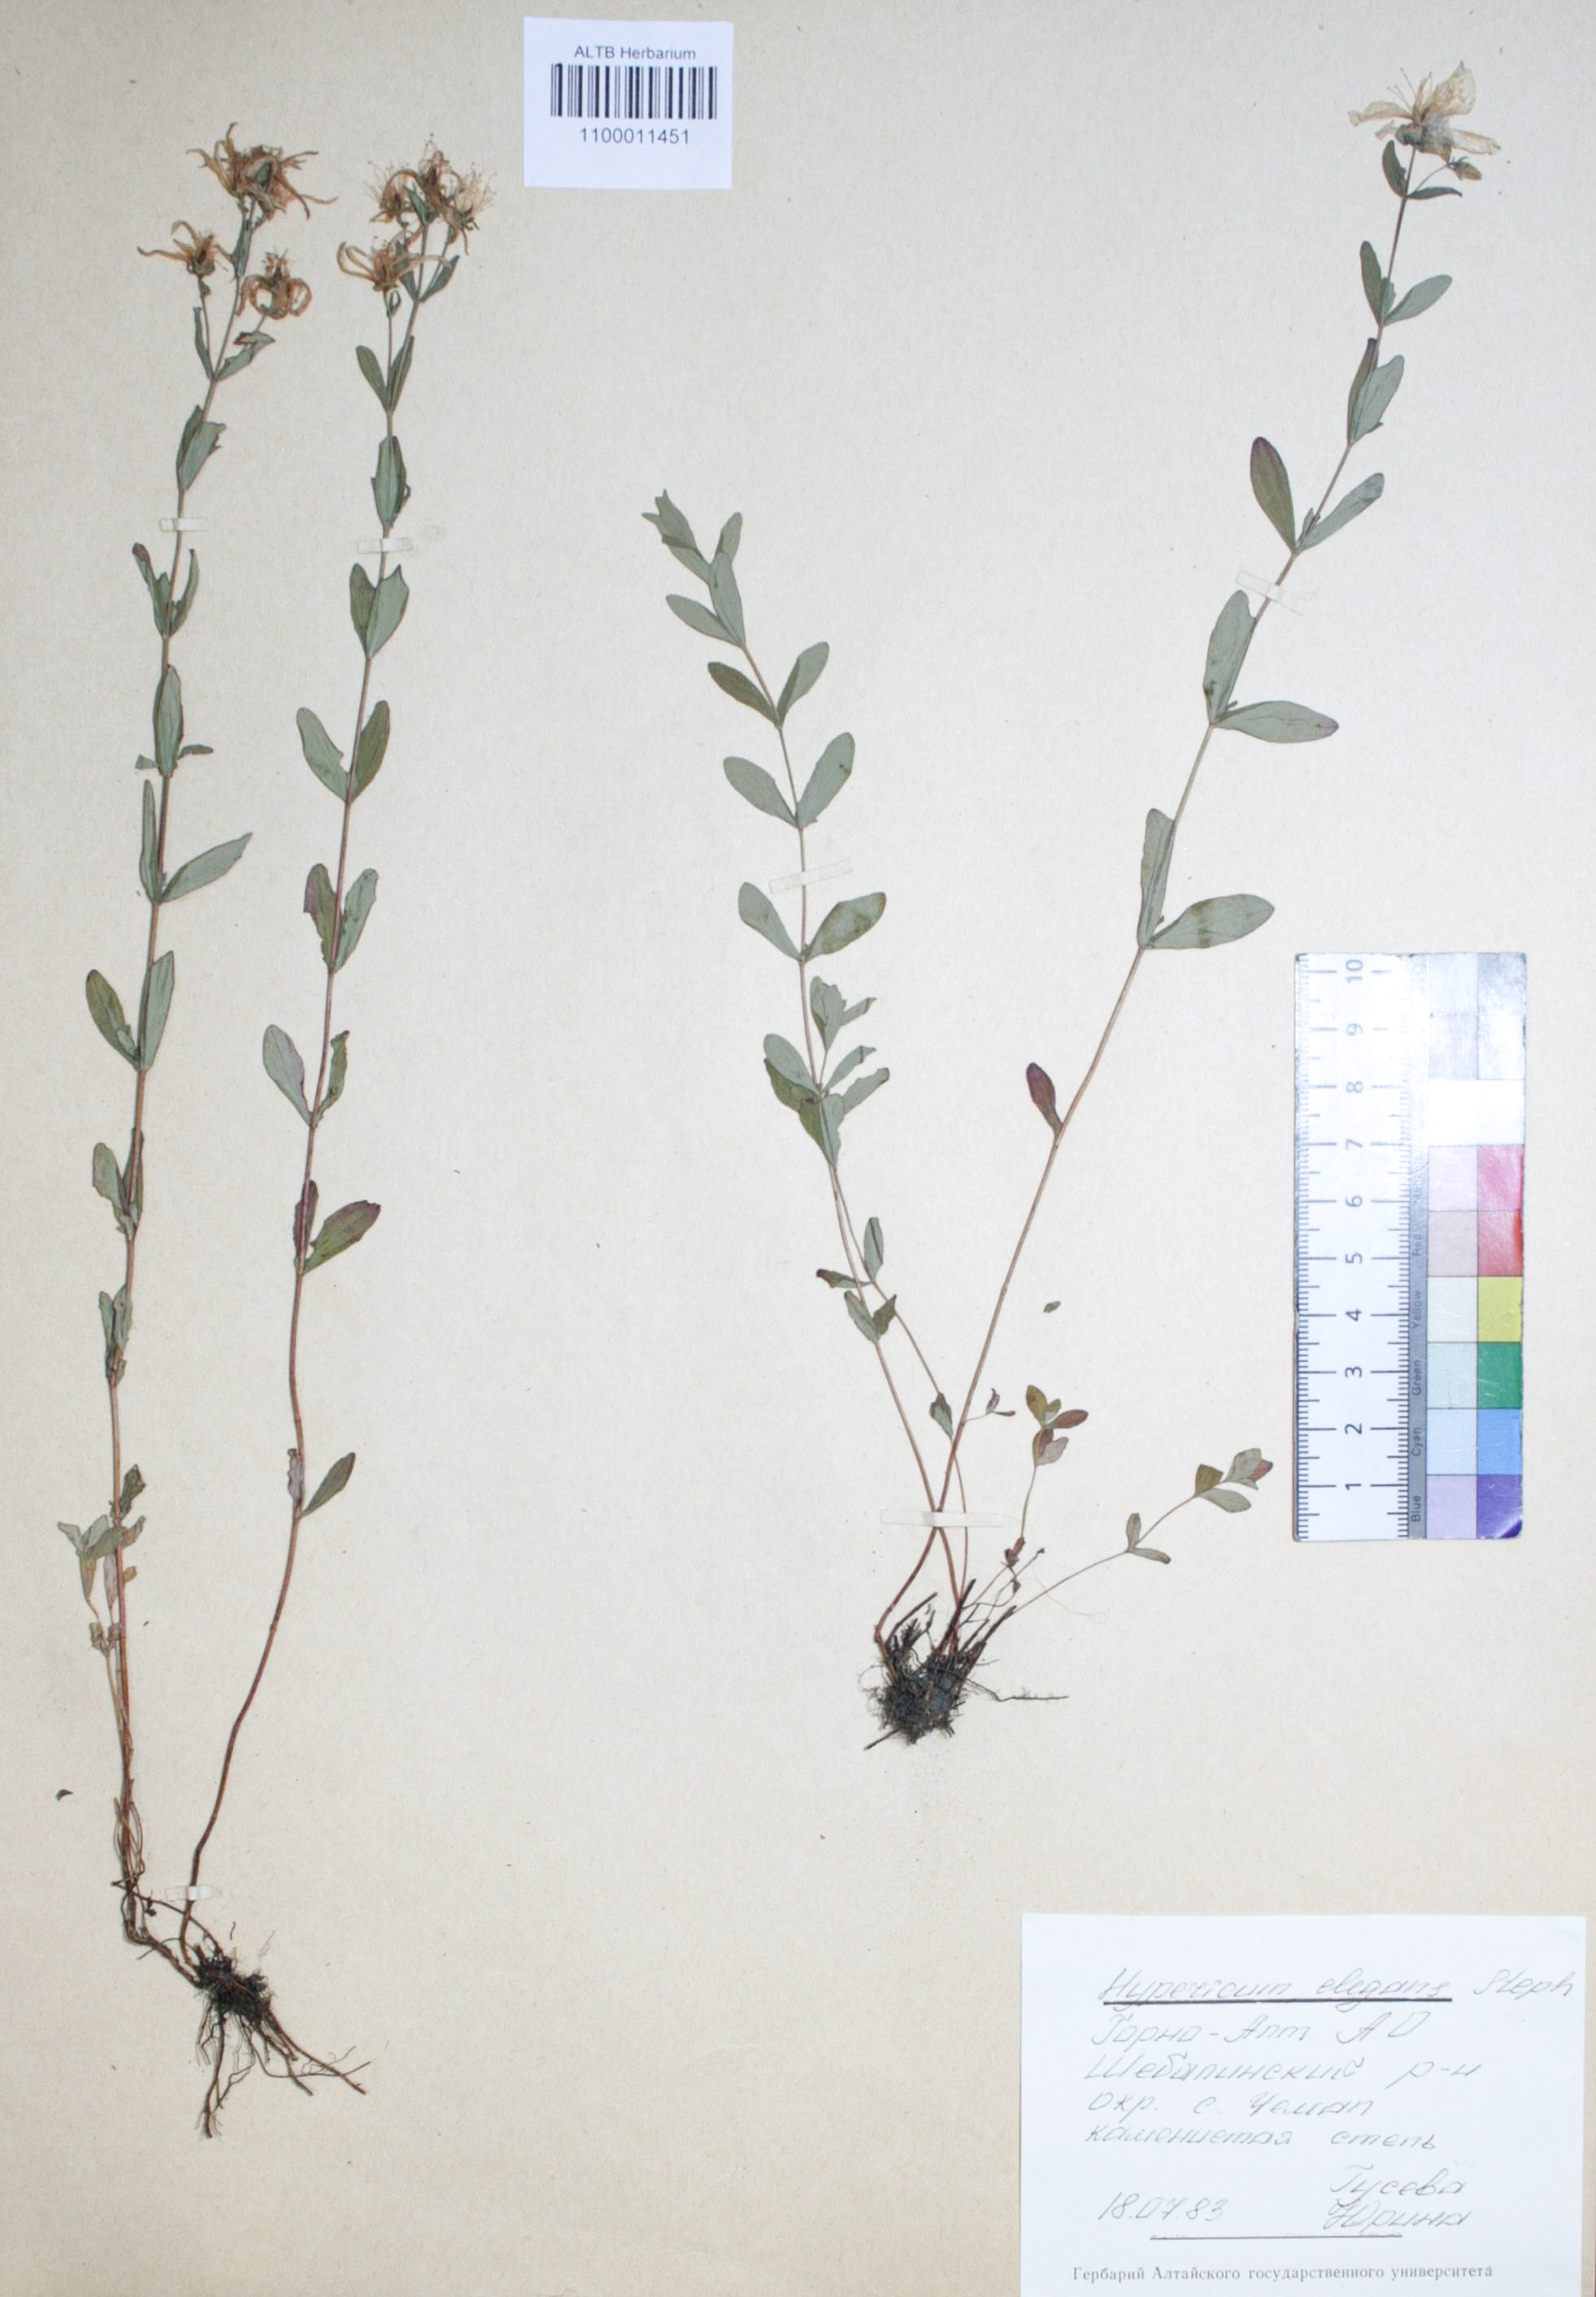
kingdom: Plantae
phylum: Tracheophyta
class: Magnoliopsida
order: Malpighiales
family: Hypericaceae
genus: Hypericum
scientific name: Hypericum elegans
